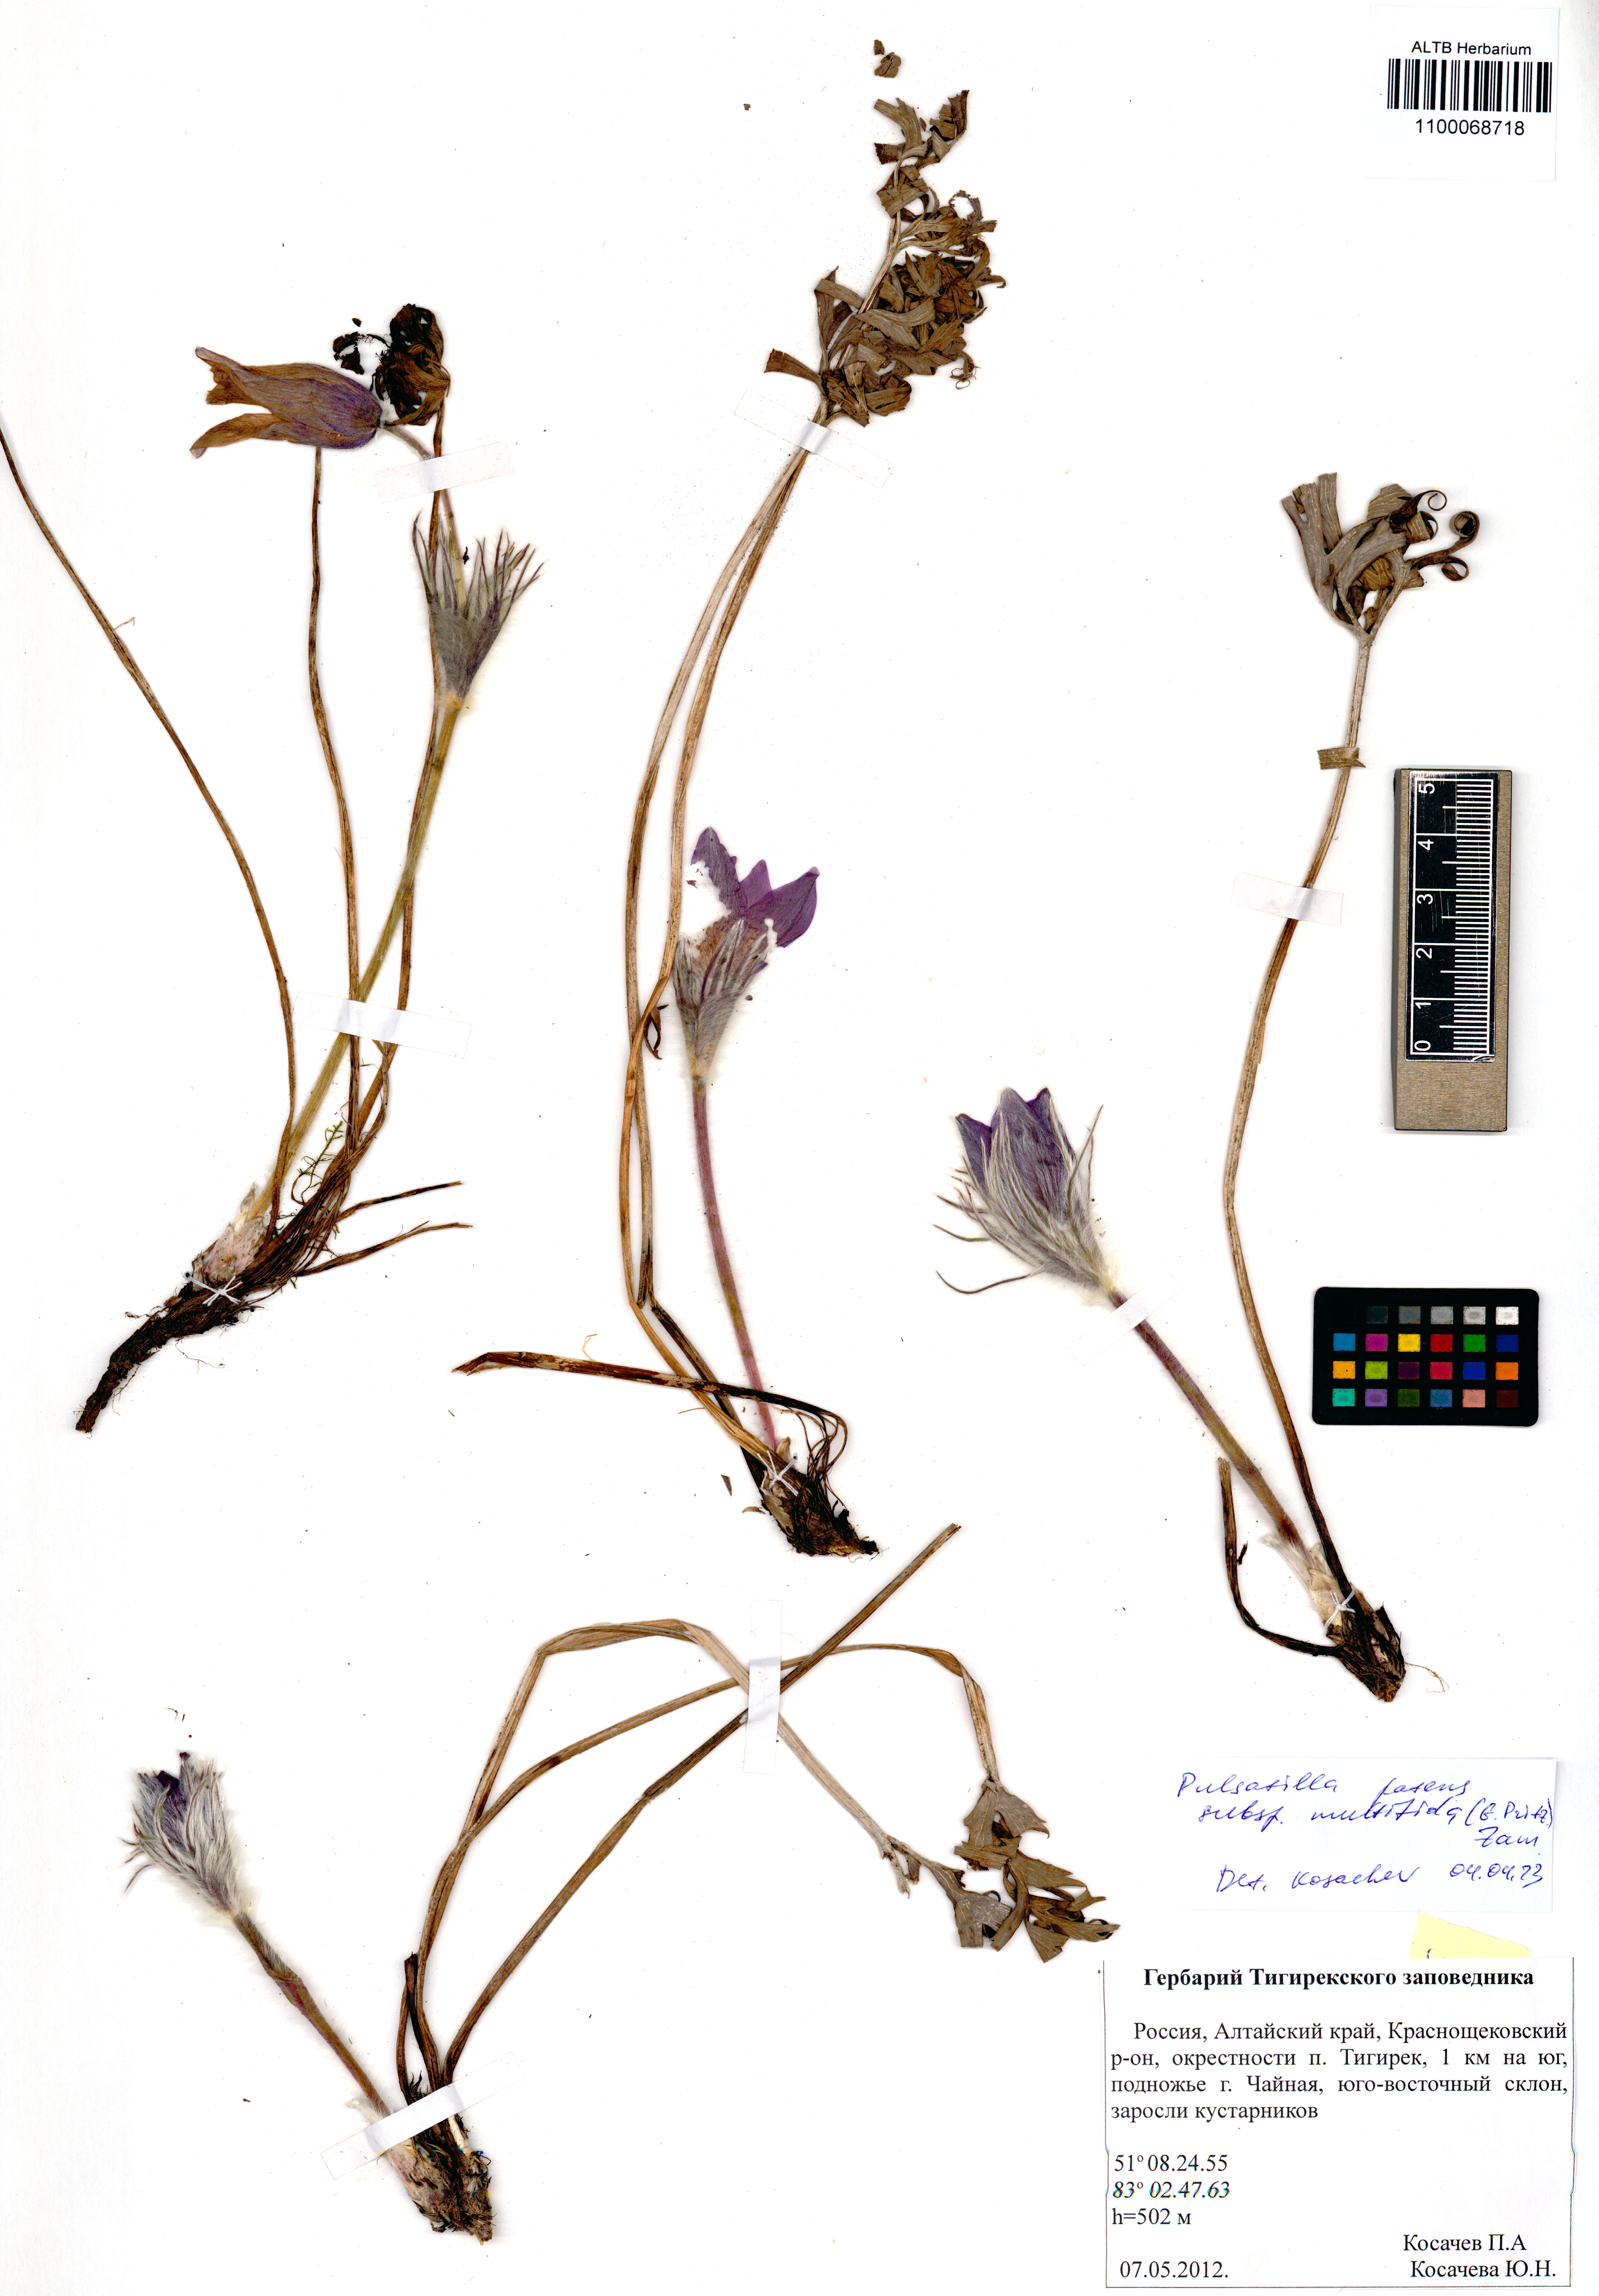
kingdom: Plantae
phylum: Tracheophyta
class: Magnoliopsida
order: Ranunculales
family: Ranunculaceae
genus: Pulsatilla
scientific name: Pulsatilla patens
